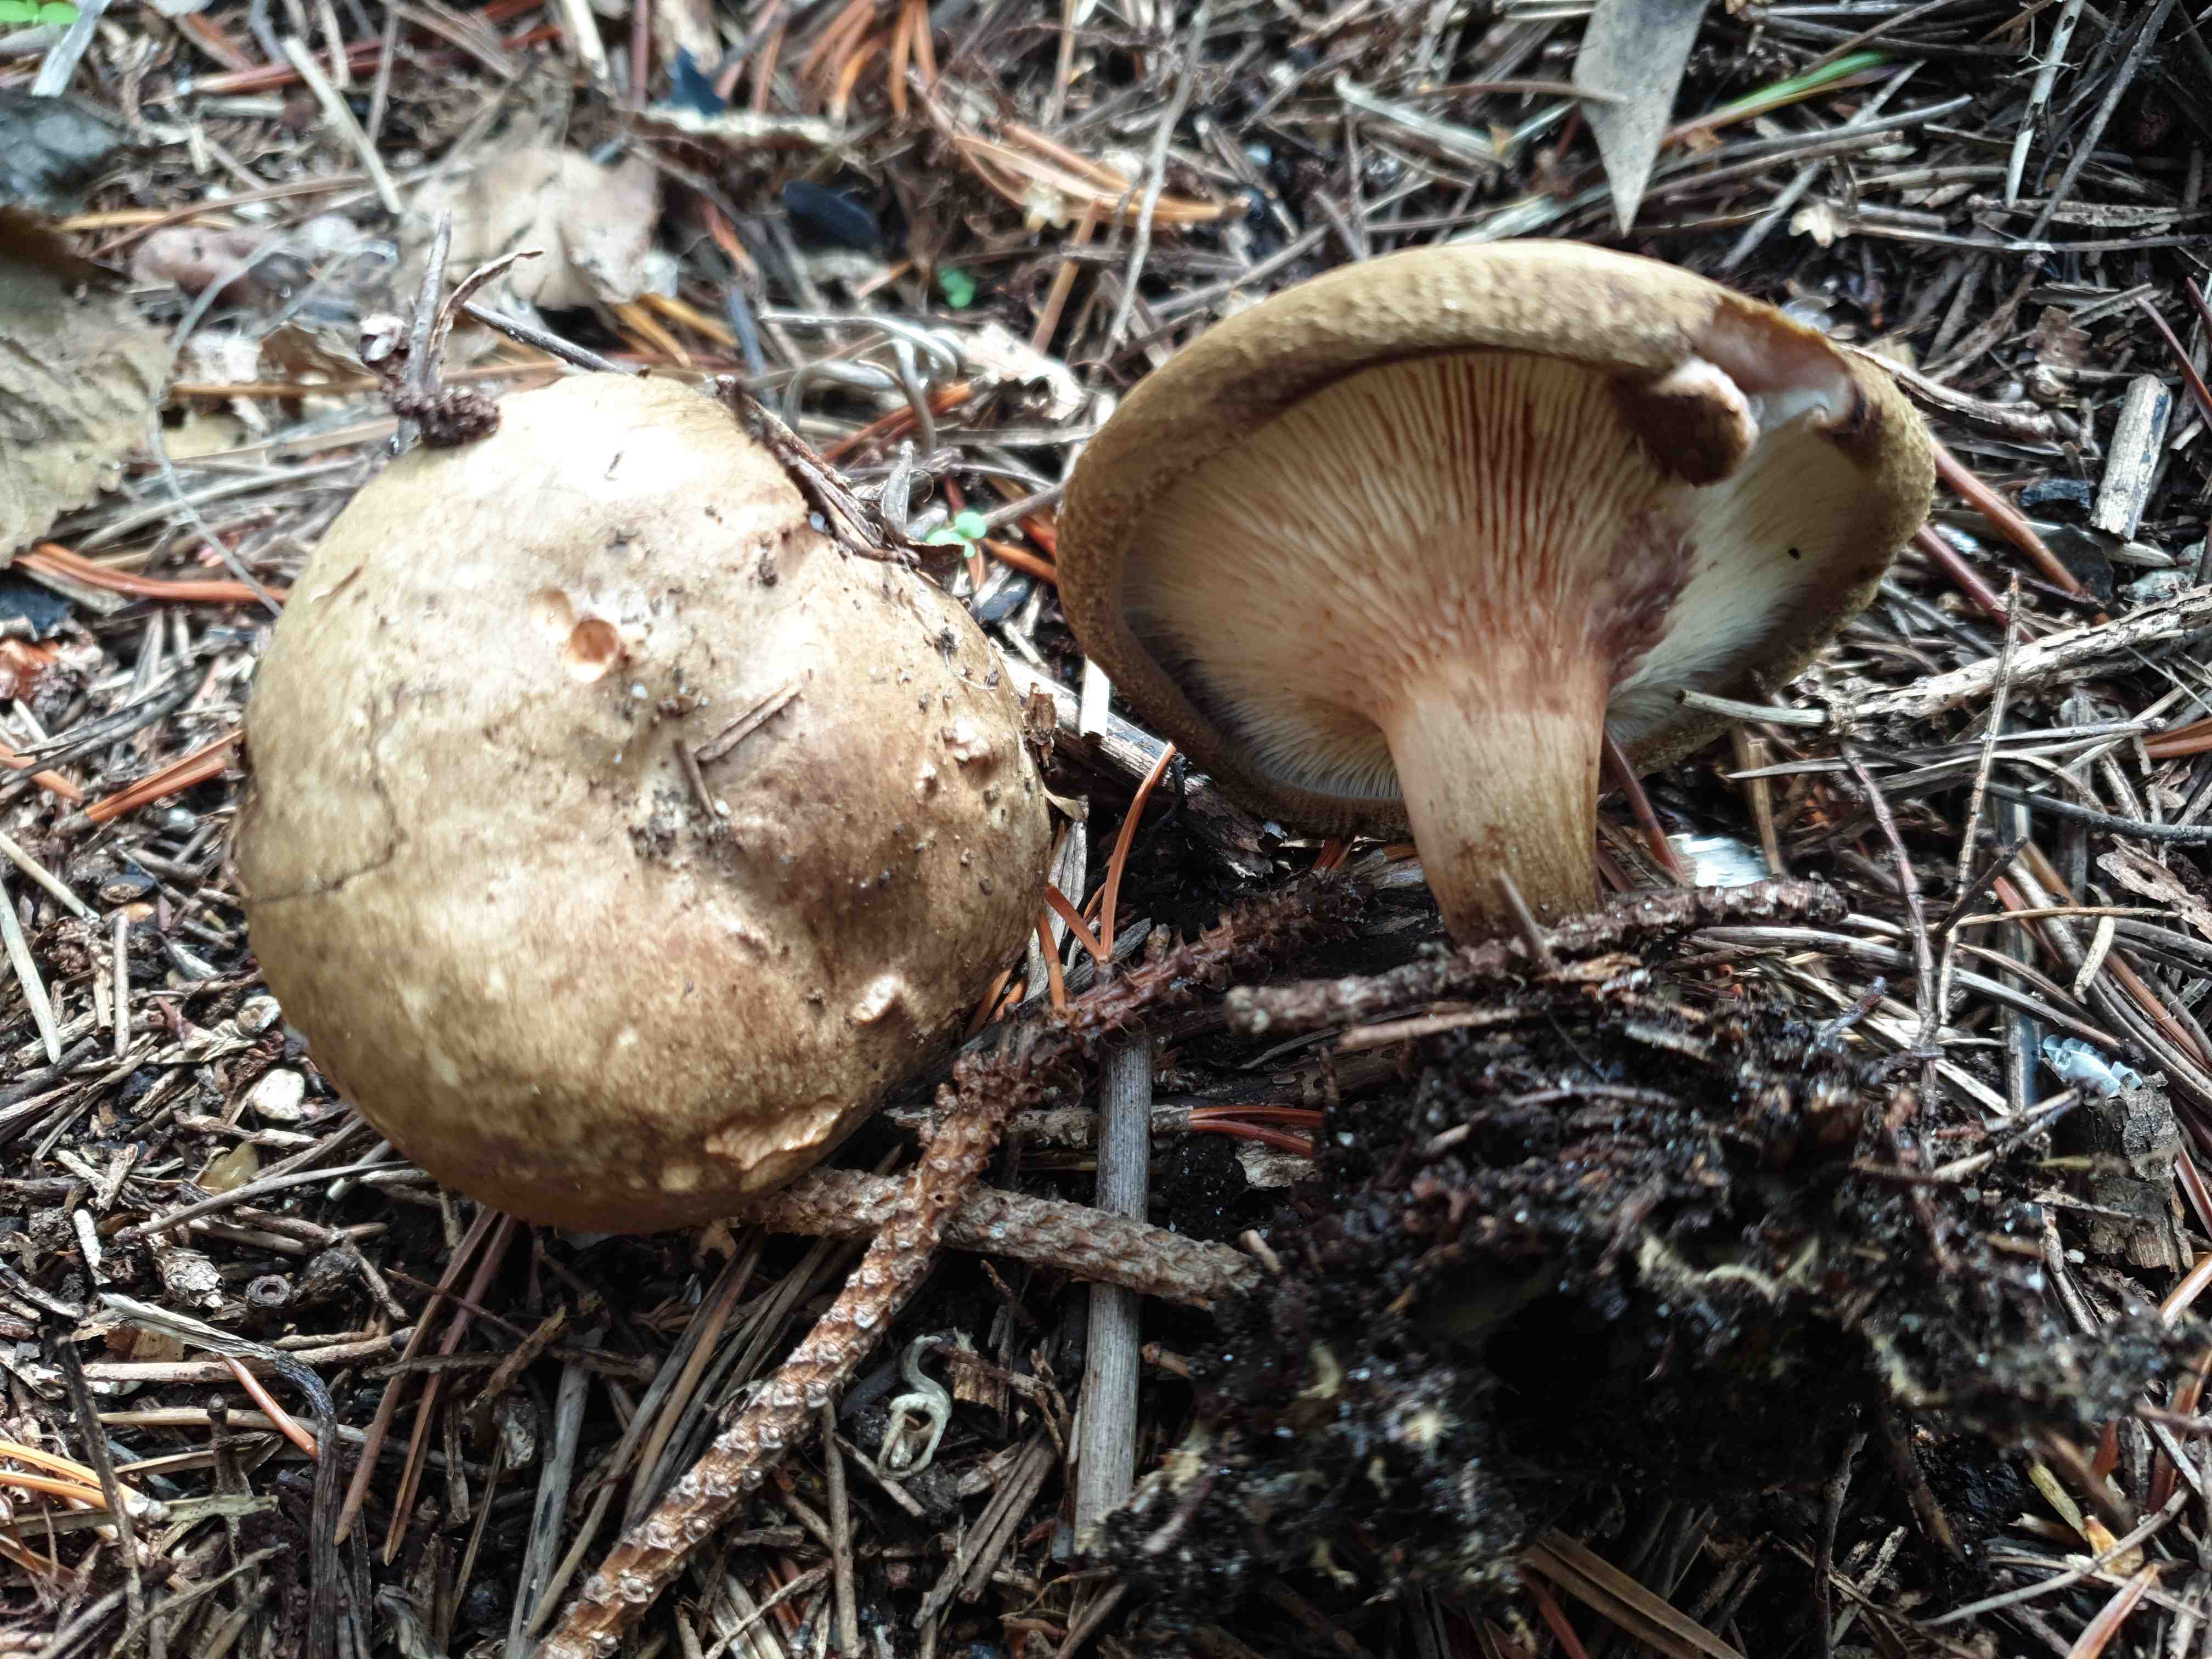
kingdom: Fungi
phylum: Basidiomycota
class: Agaricomycetes
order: Boletales
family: Paxillaceae
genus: Paxillus
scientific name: Paxillus involutus
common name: almindelig netbladhat
